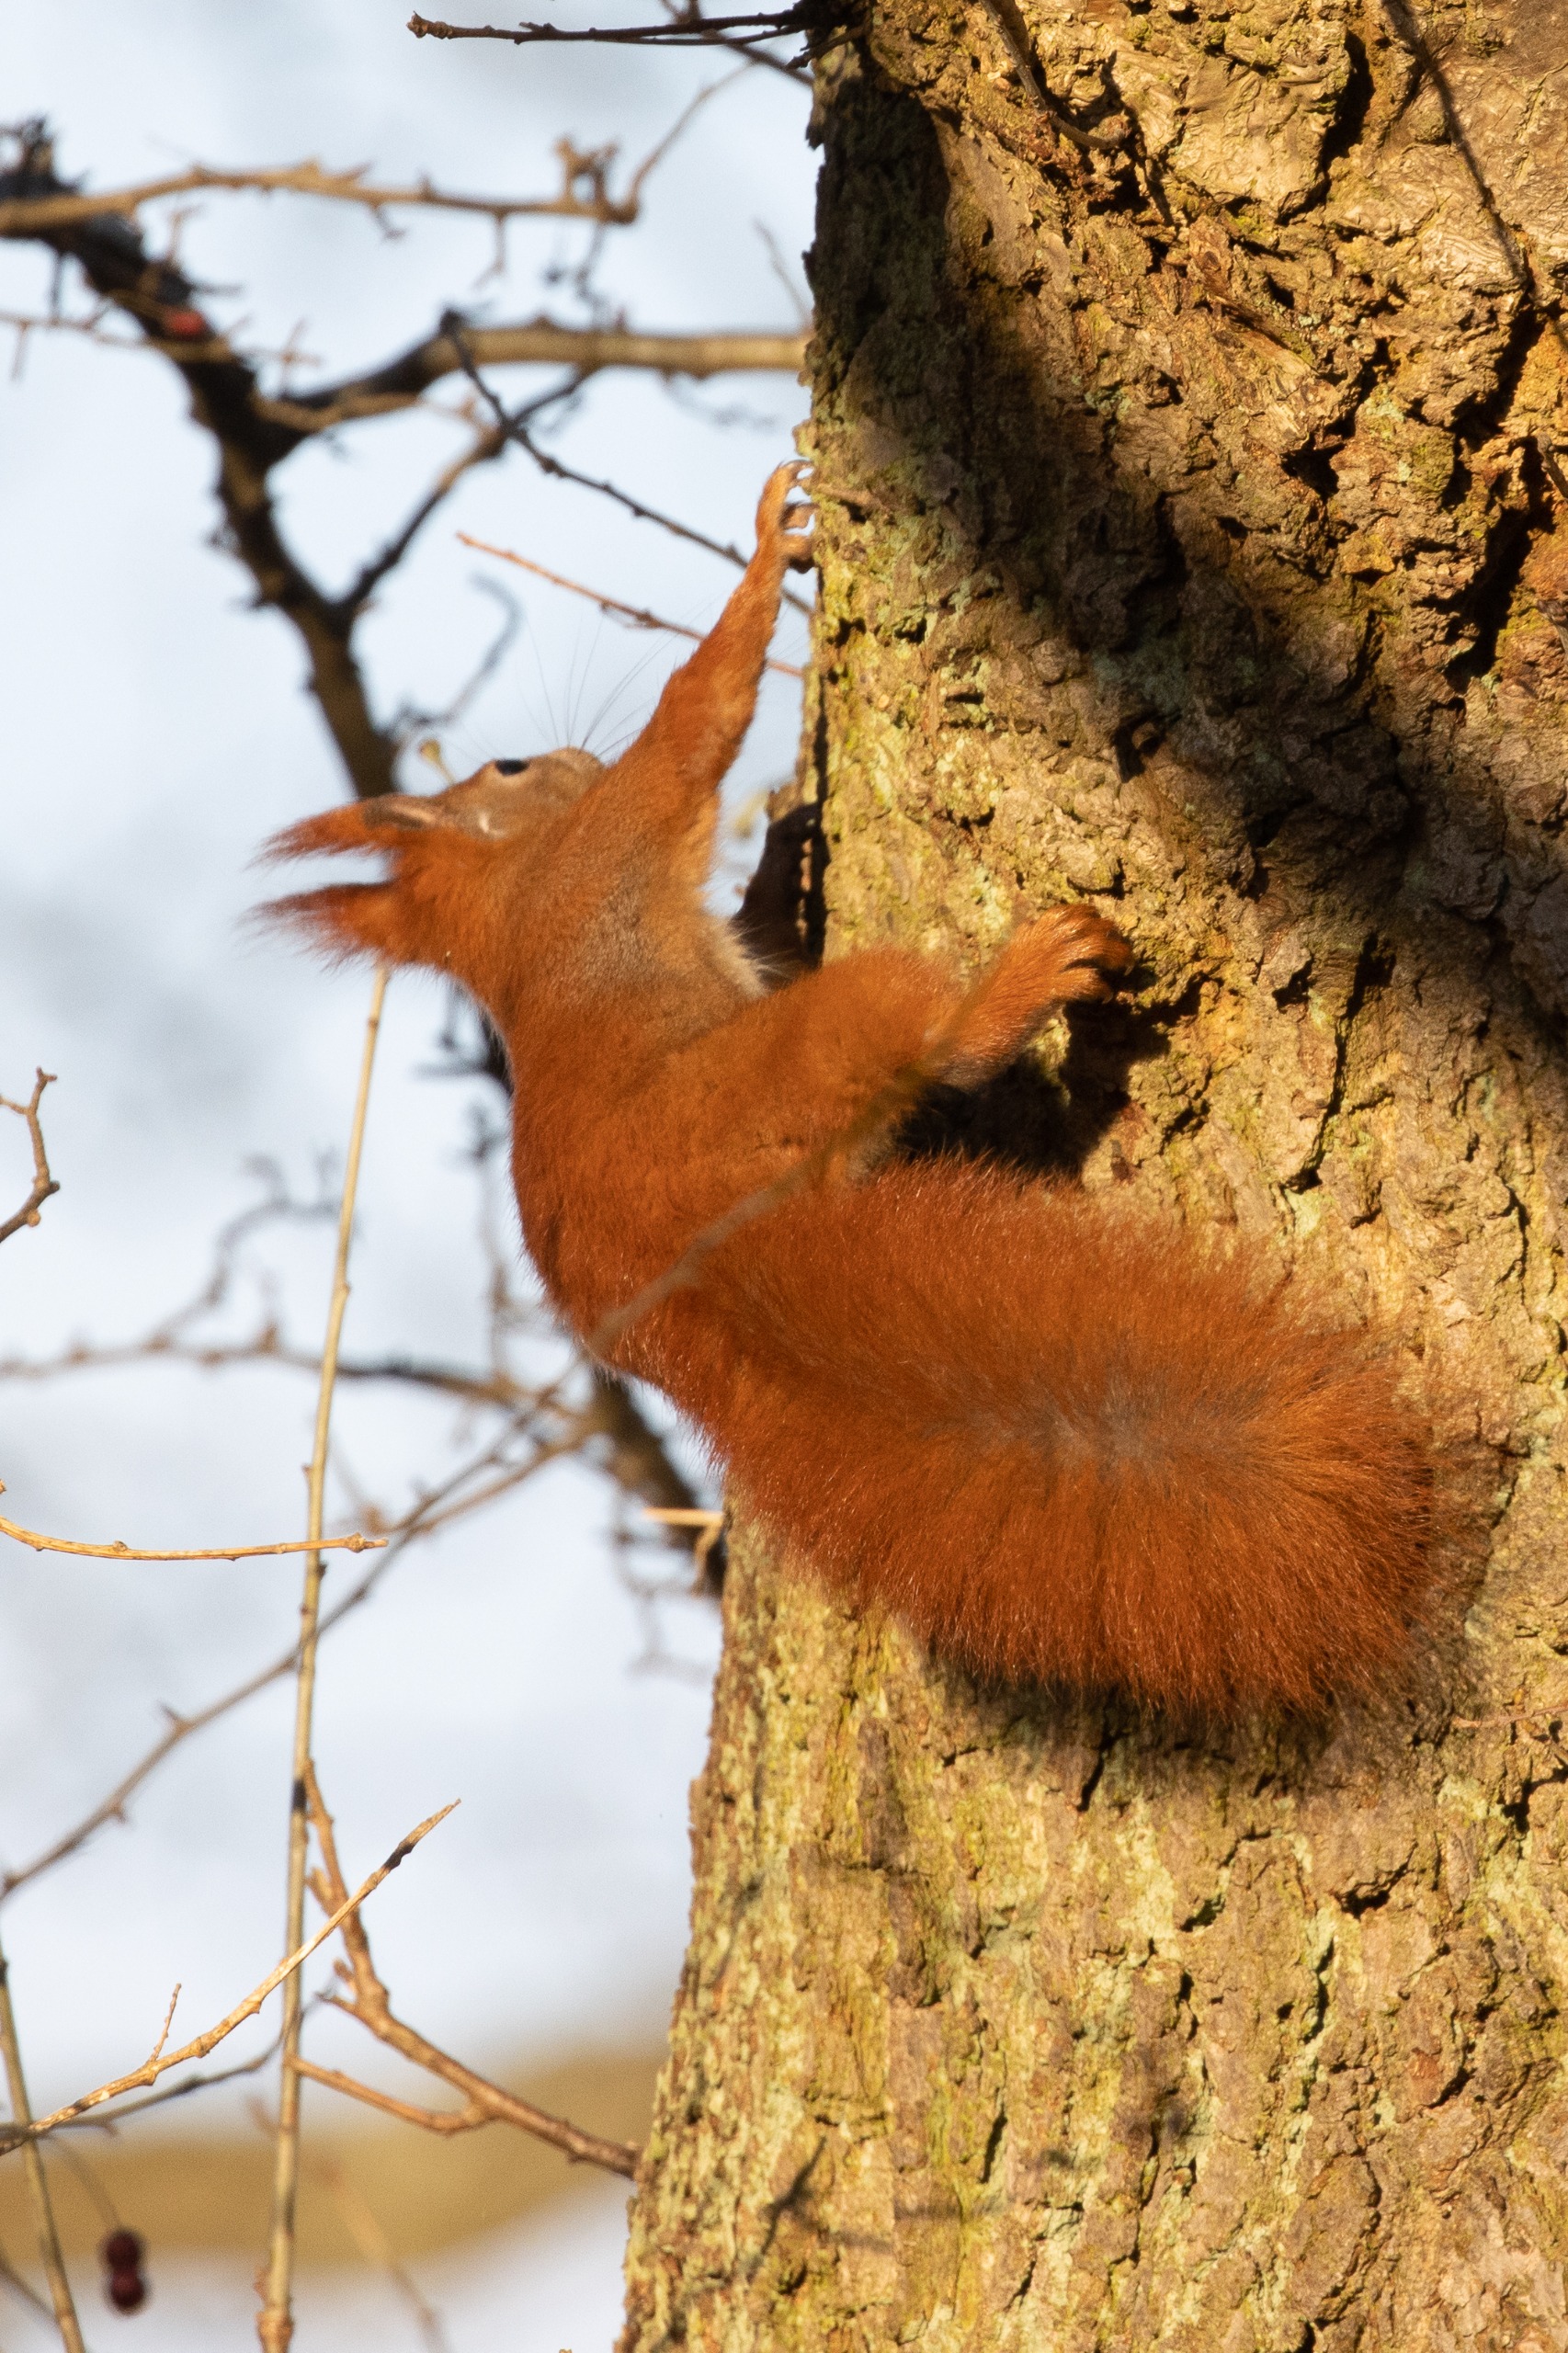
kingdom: Animalia
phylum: Chordata
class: Mammalia
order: Rodentia
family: Sciuridae
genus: Sciurus
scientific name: Sciurus vulgaris
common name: Egern
